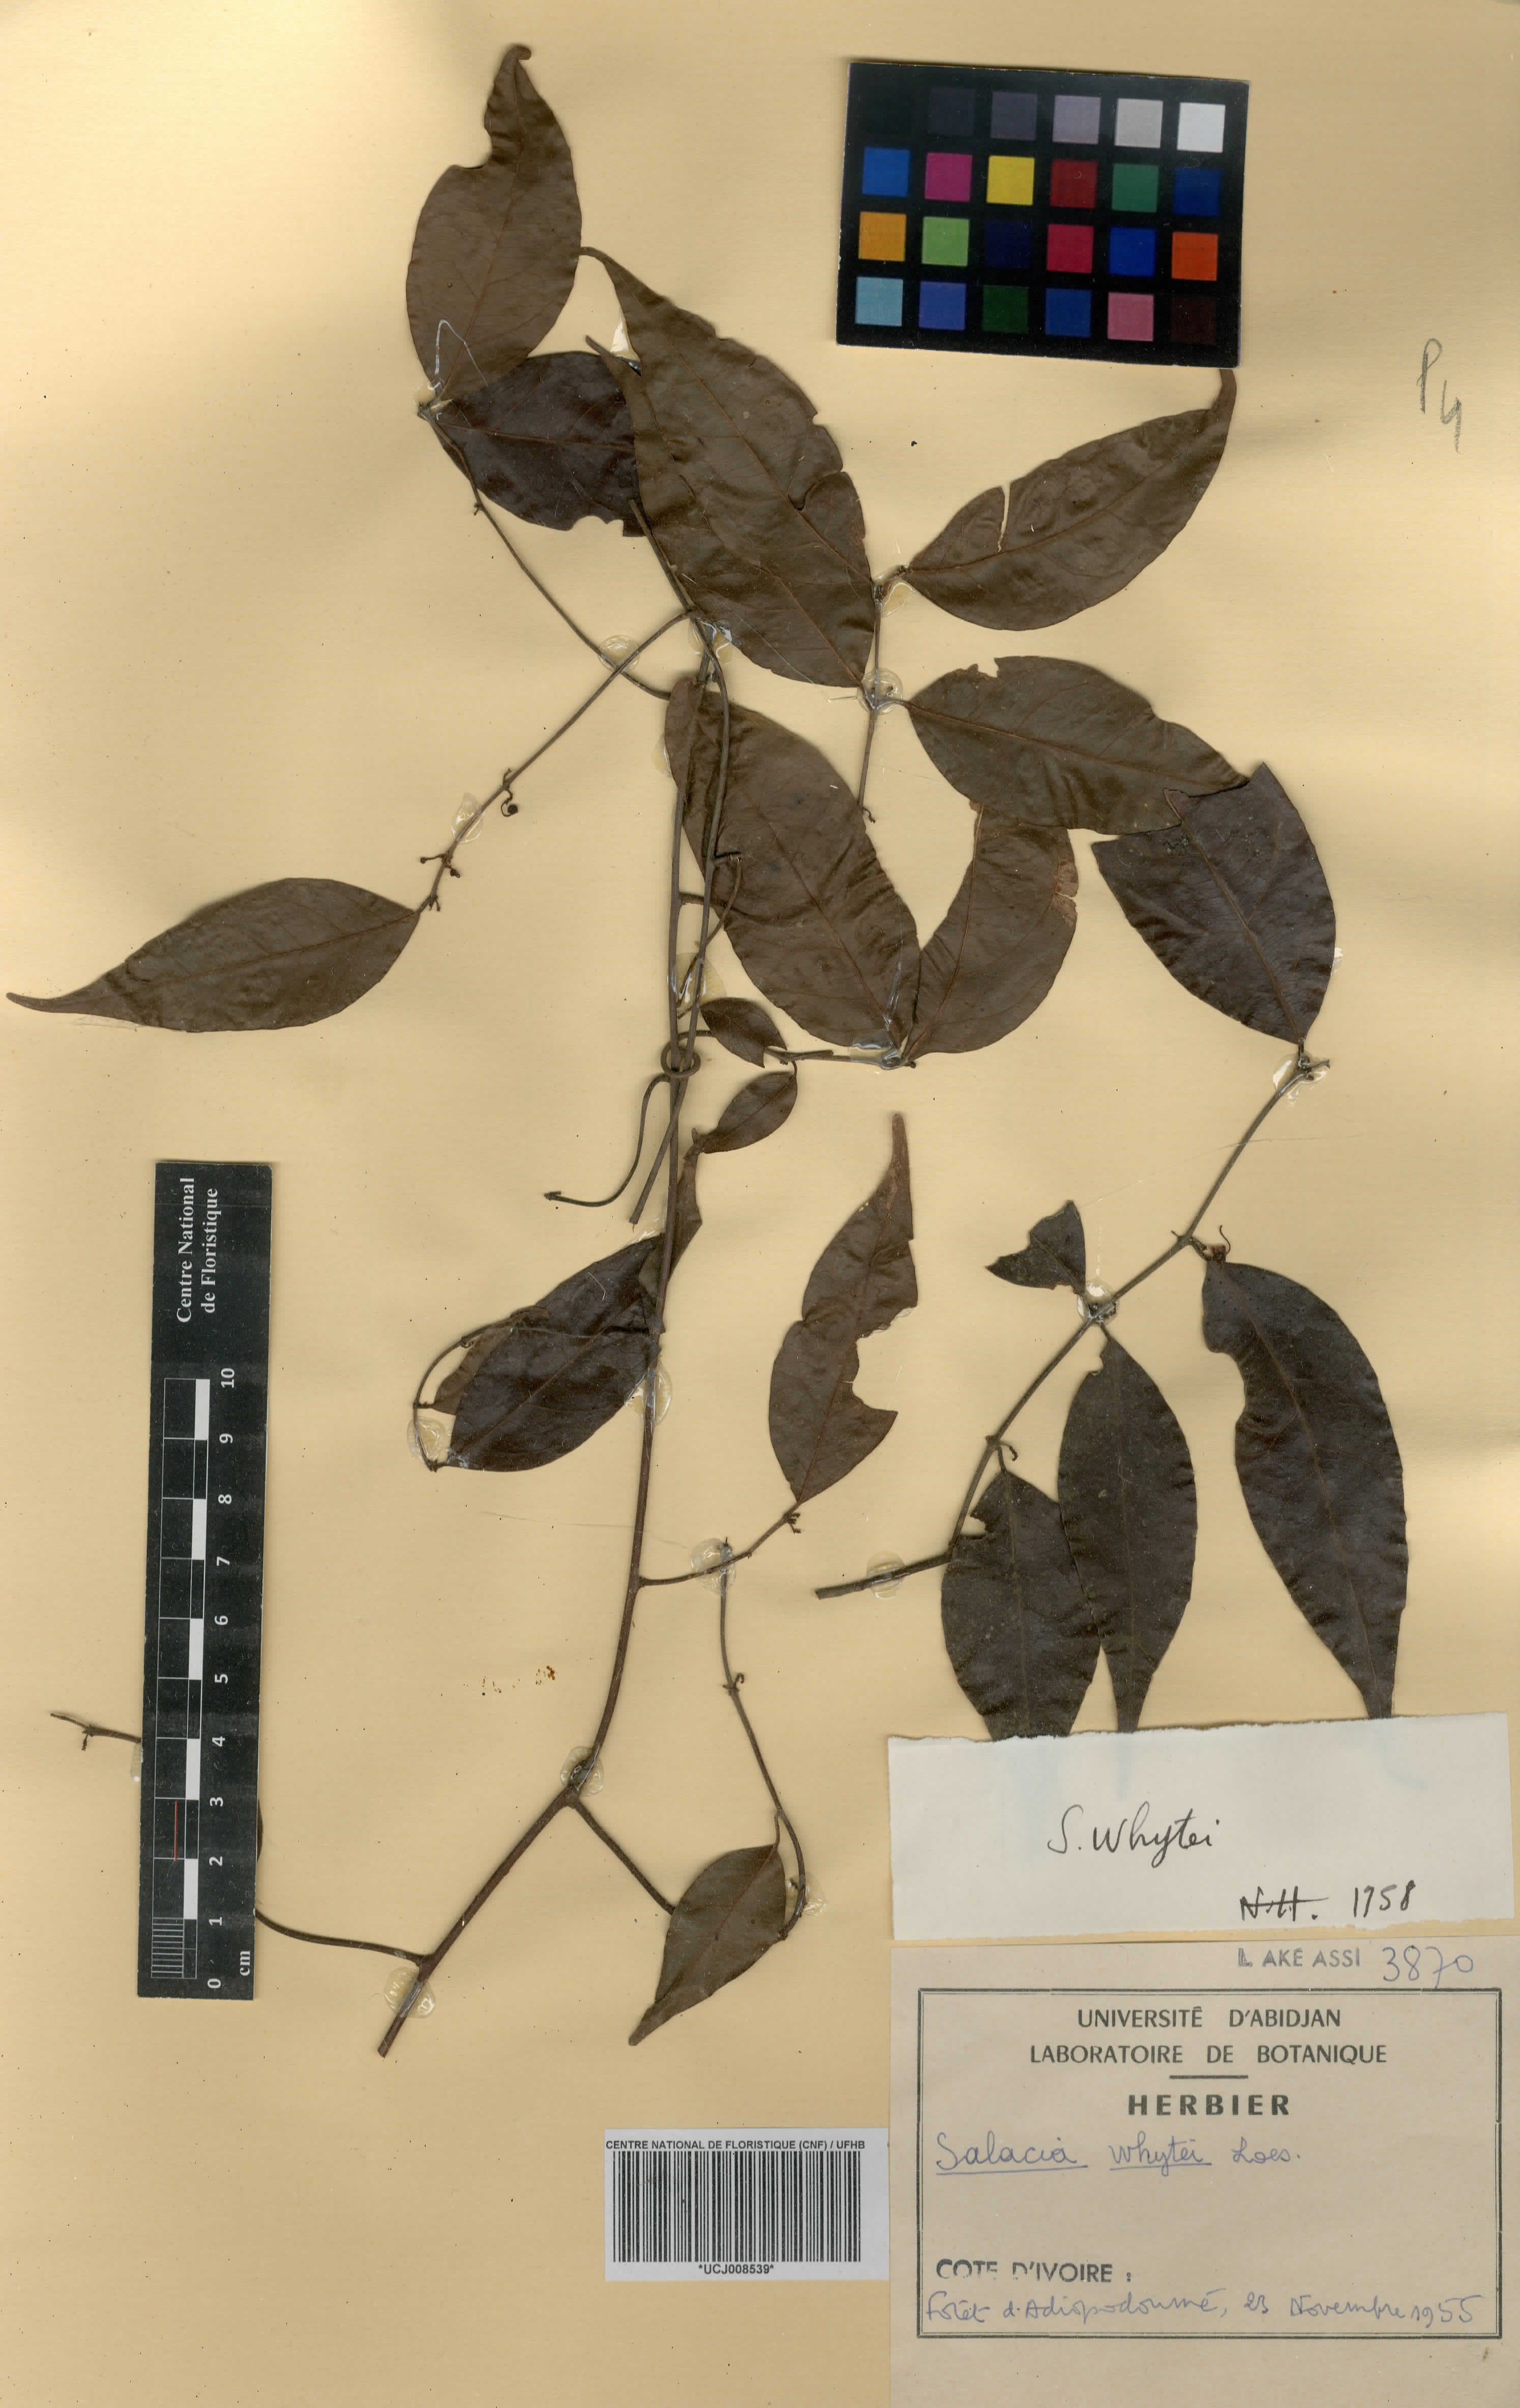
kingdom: Plantae
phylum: Tracheophyta
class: Magnoliopsida
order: Celastrales
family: Celastraceae
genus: Salacia
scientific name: Salacia whytei
